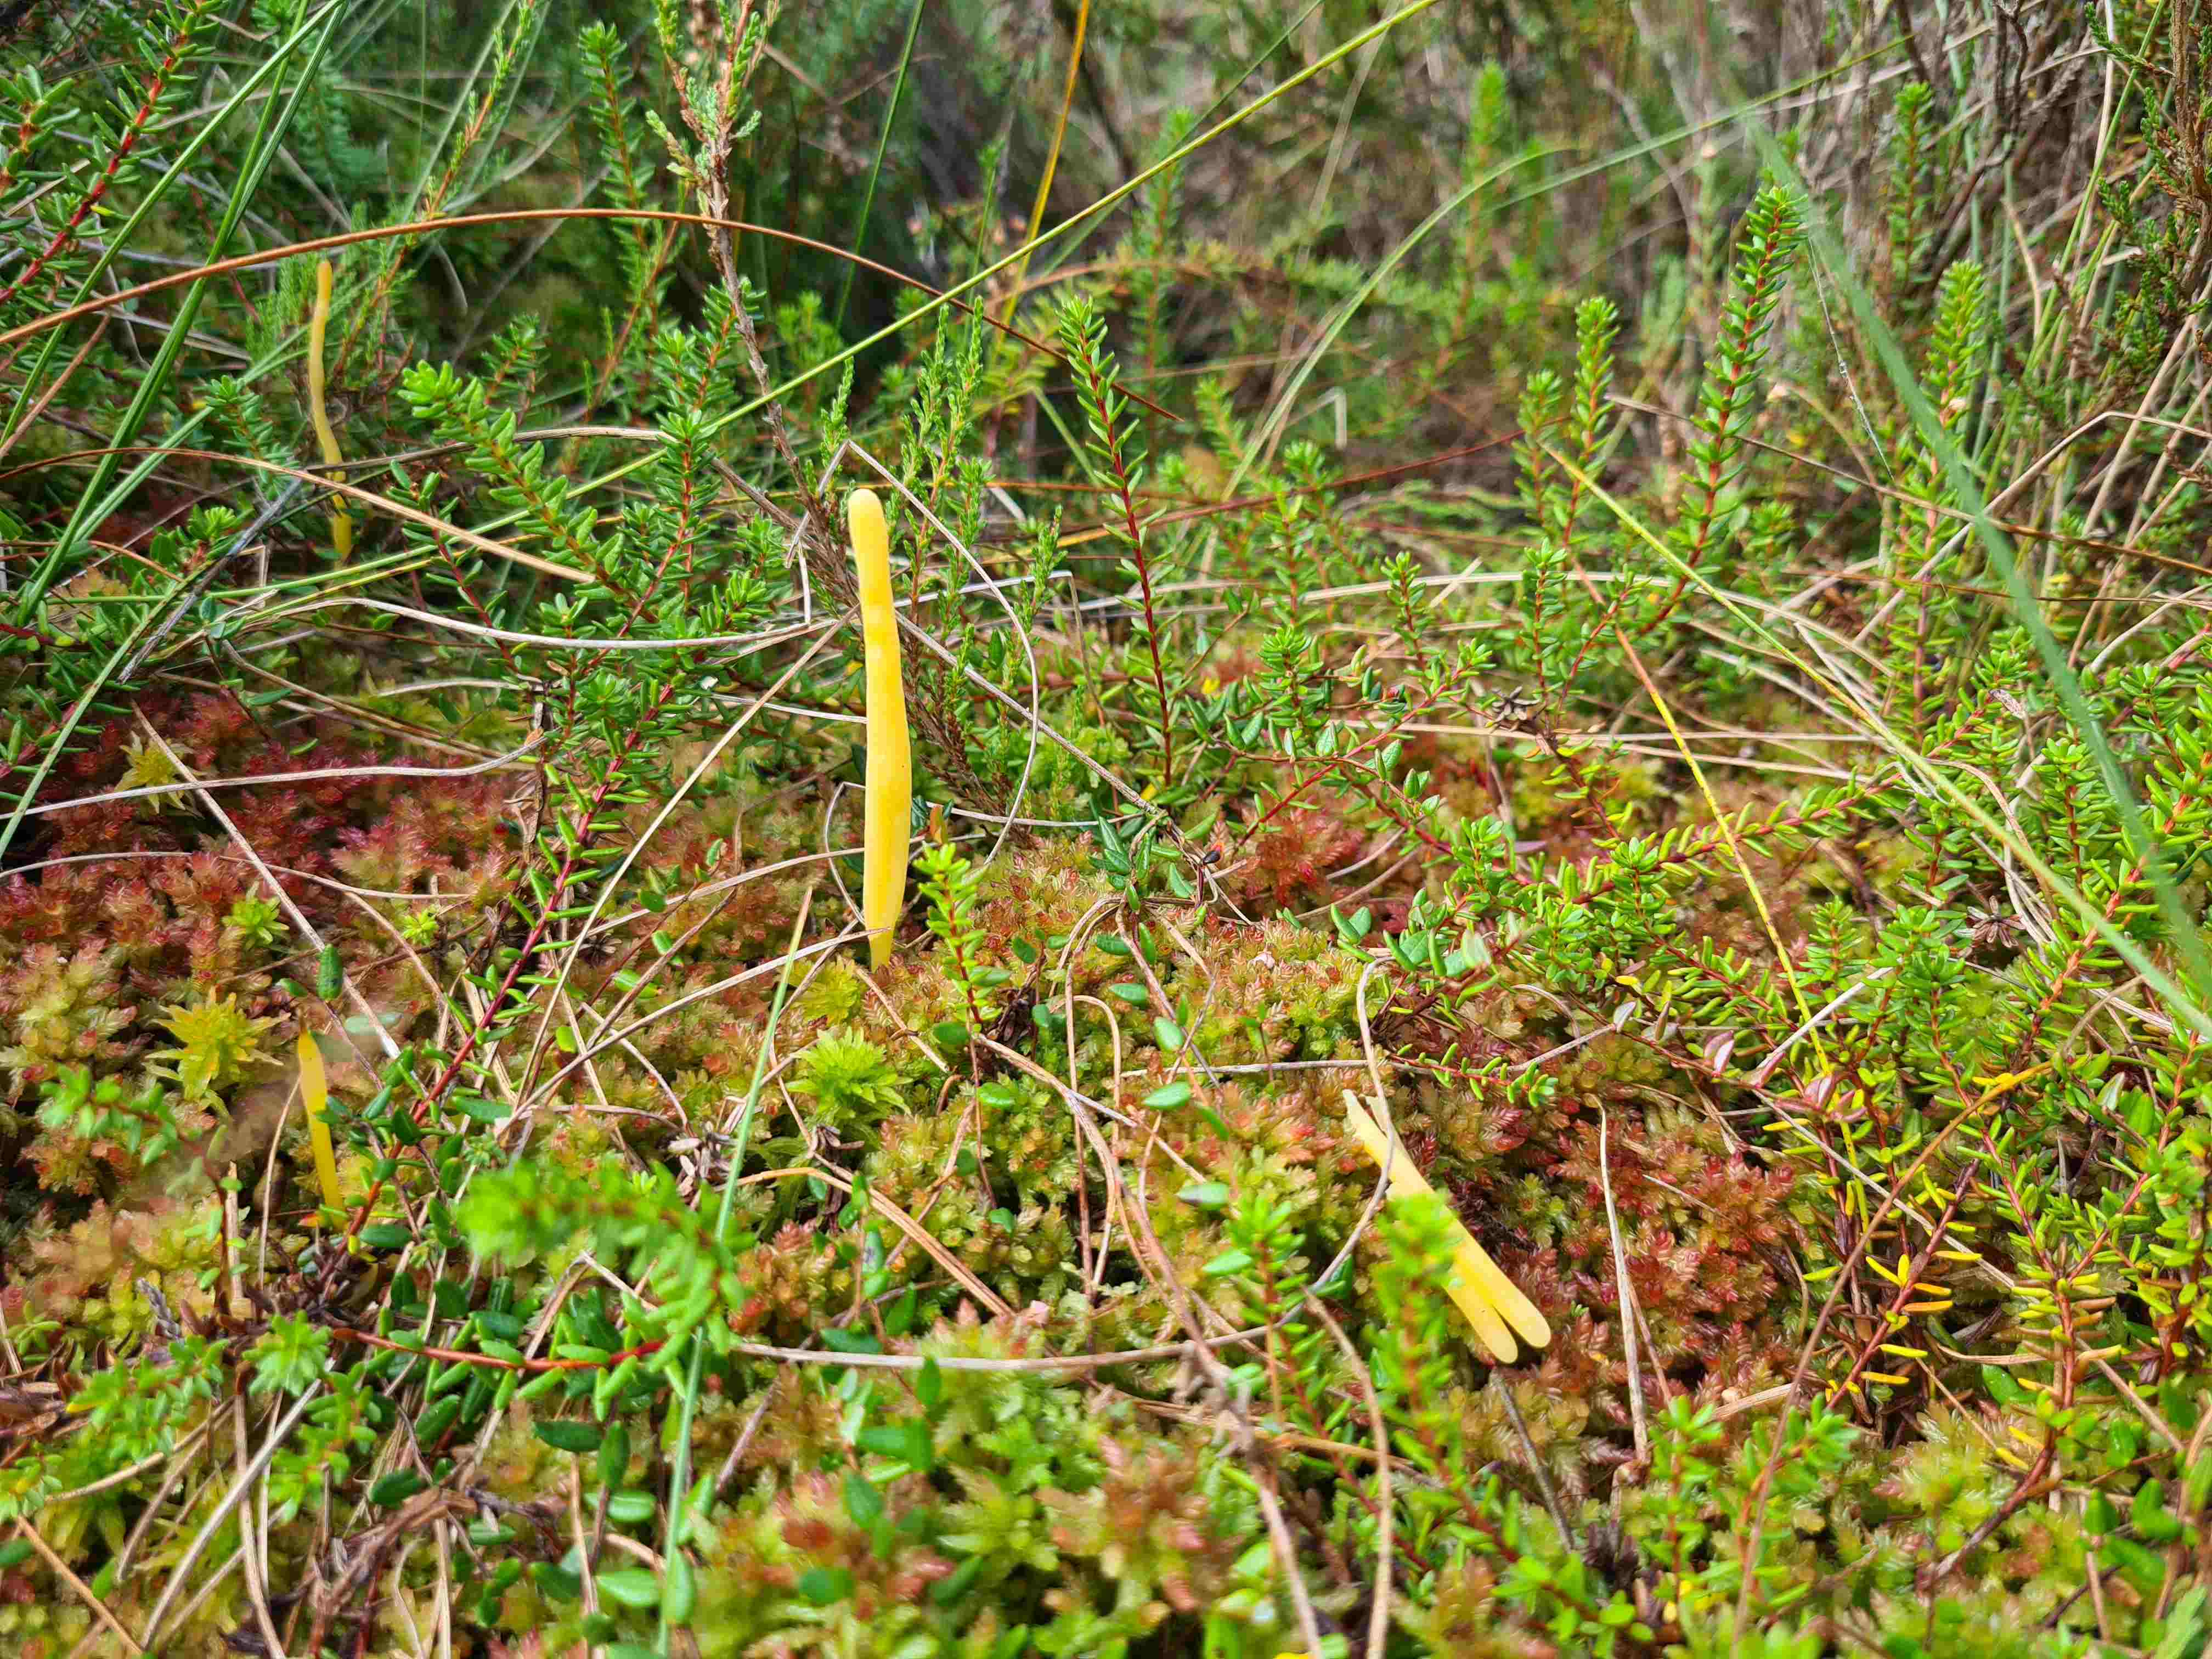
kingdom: Fungi
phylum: Basidiomycota
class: Agaricomycetes
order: Agaricales
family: Clavariaceae
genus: Clavaria
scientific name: Clavaria
